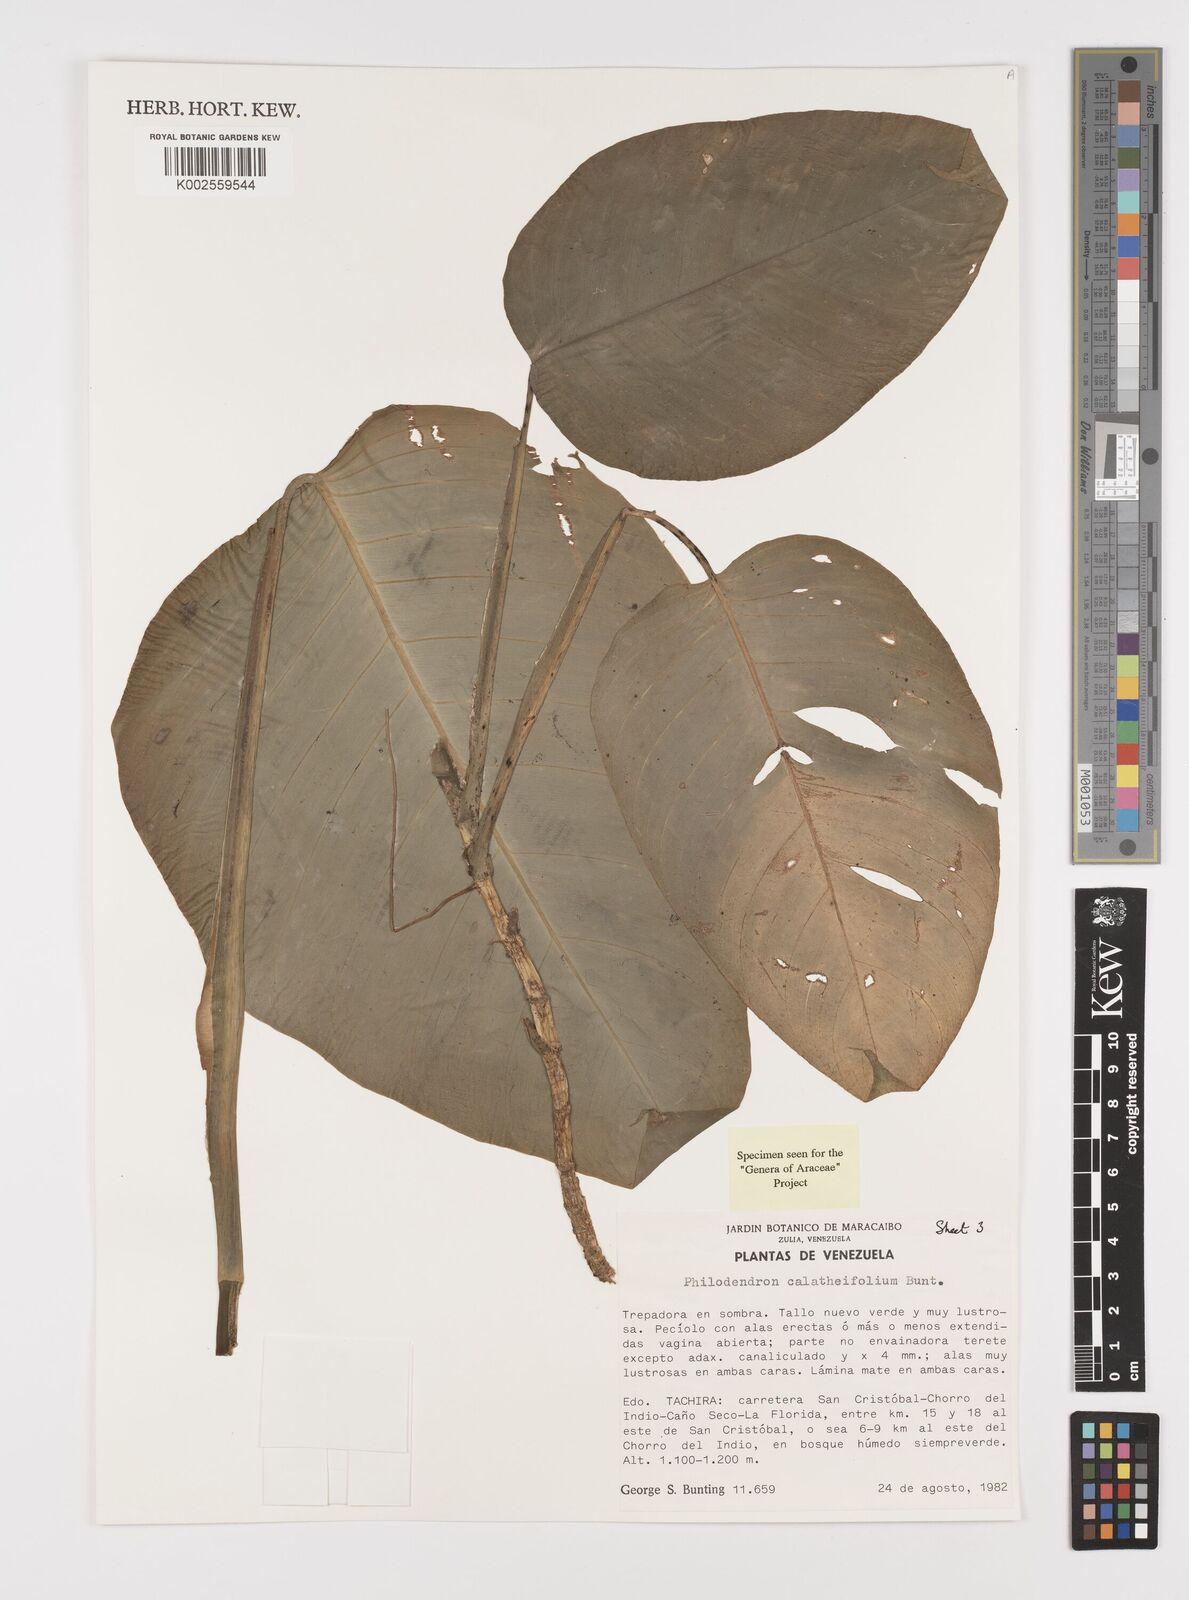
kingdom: Plantae
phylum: Tracheophyta
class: Liliopsida
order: Alismatales
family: Araceae
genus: Philodendron
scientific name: Philodendron calatheifolium
